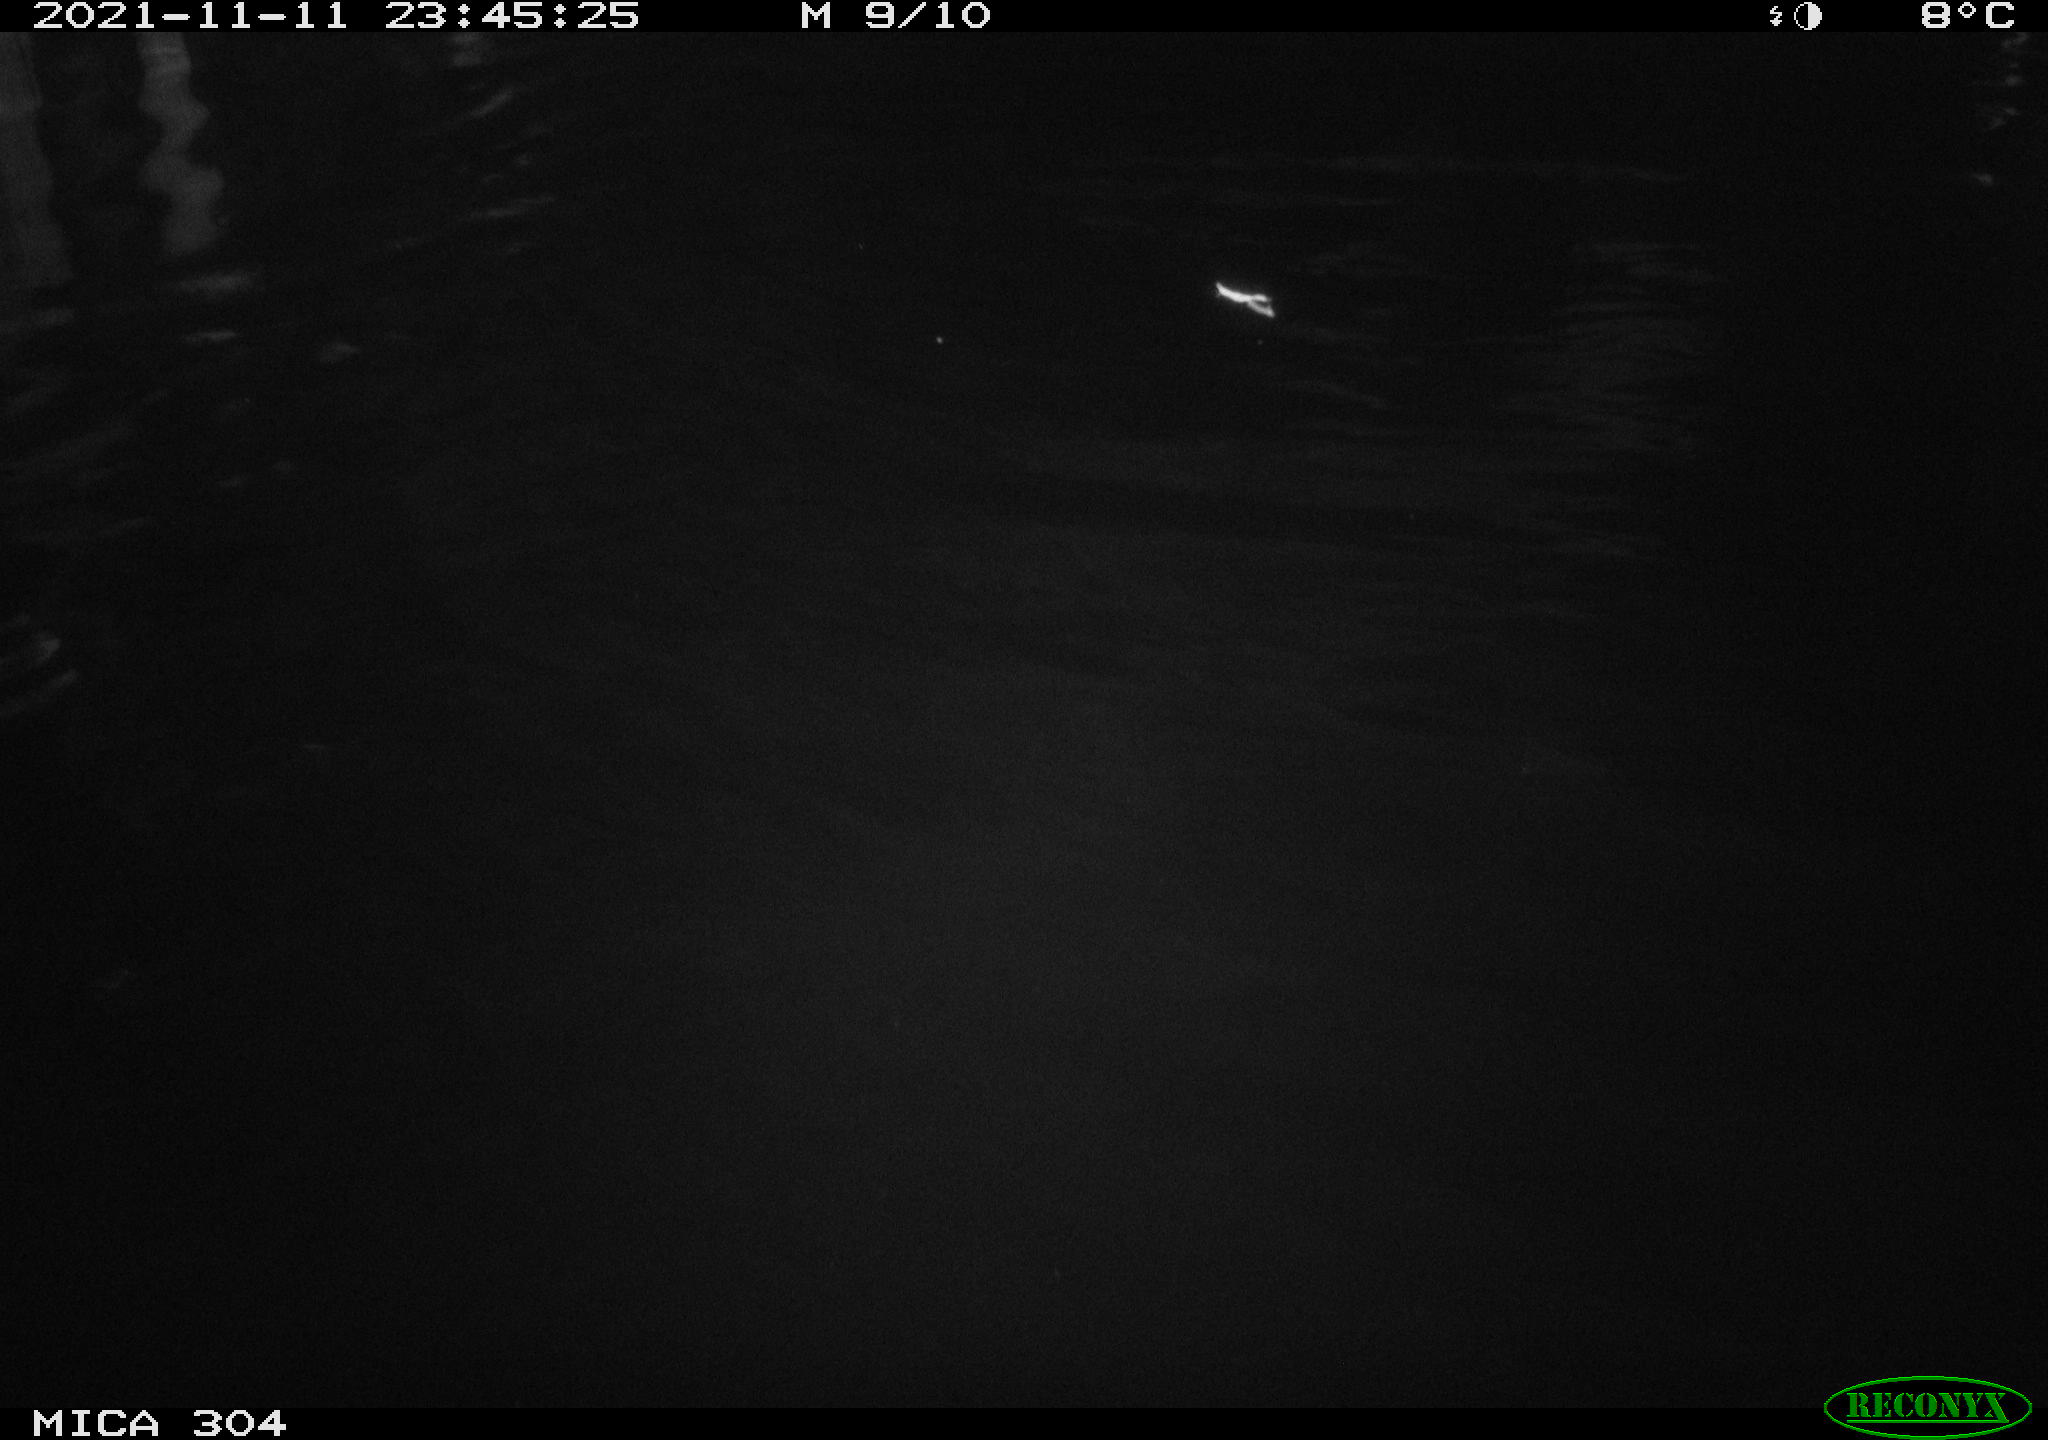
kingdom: Animalia
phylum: Chordata
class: Mammalia
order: Rodentia
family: Cricetidae
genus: Ondatra
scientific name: Ondatra zibethicus
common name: Muskrat
